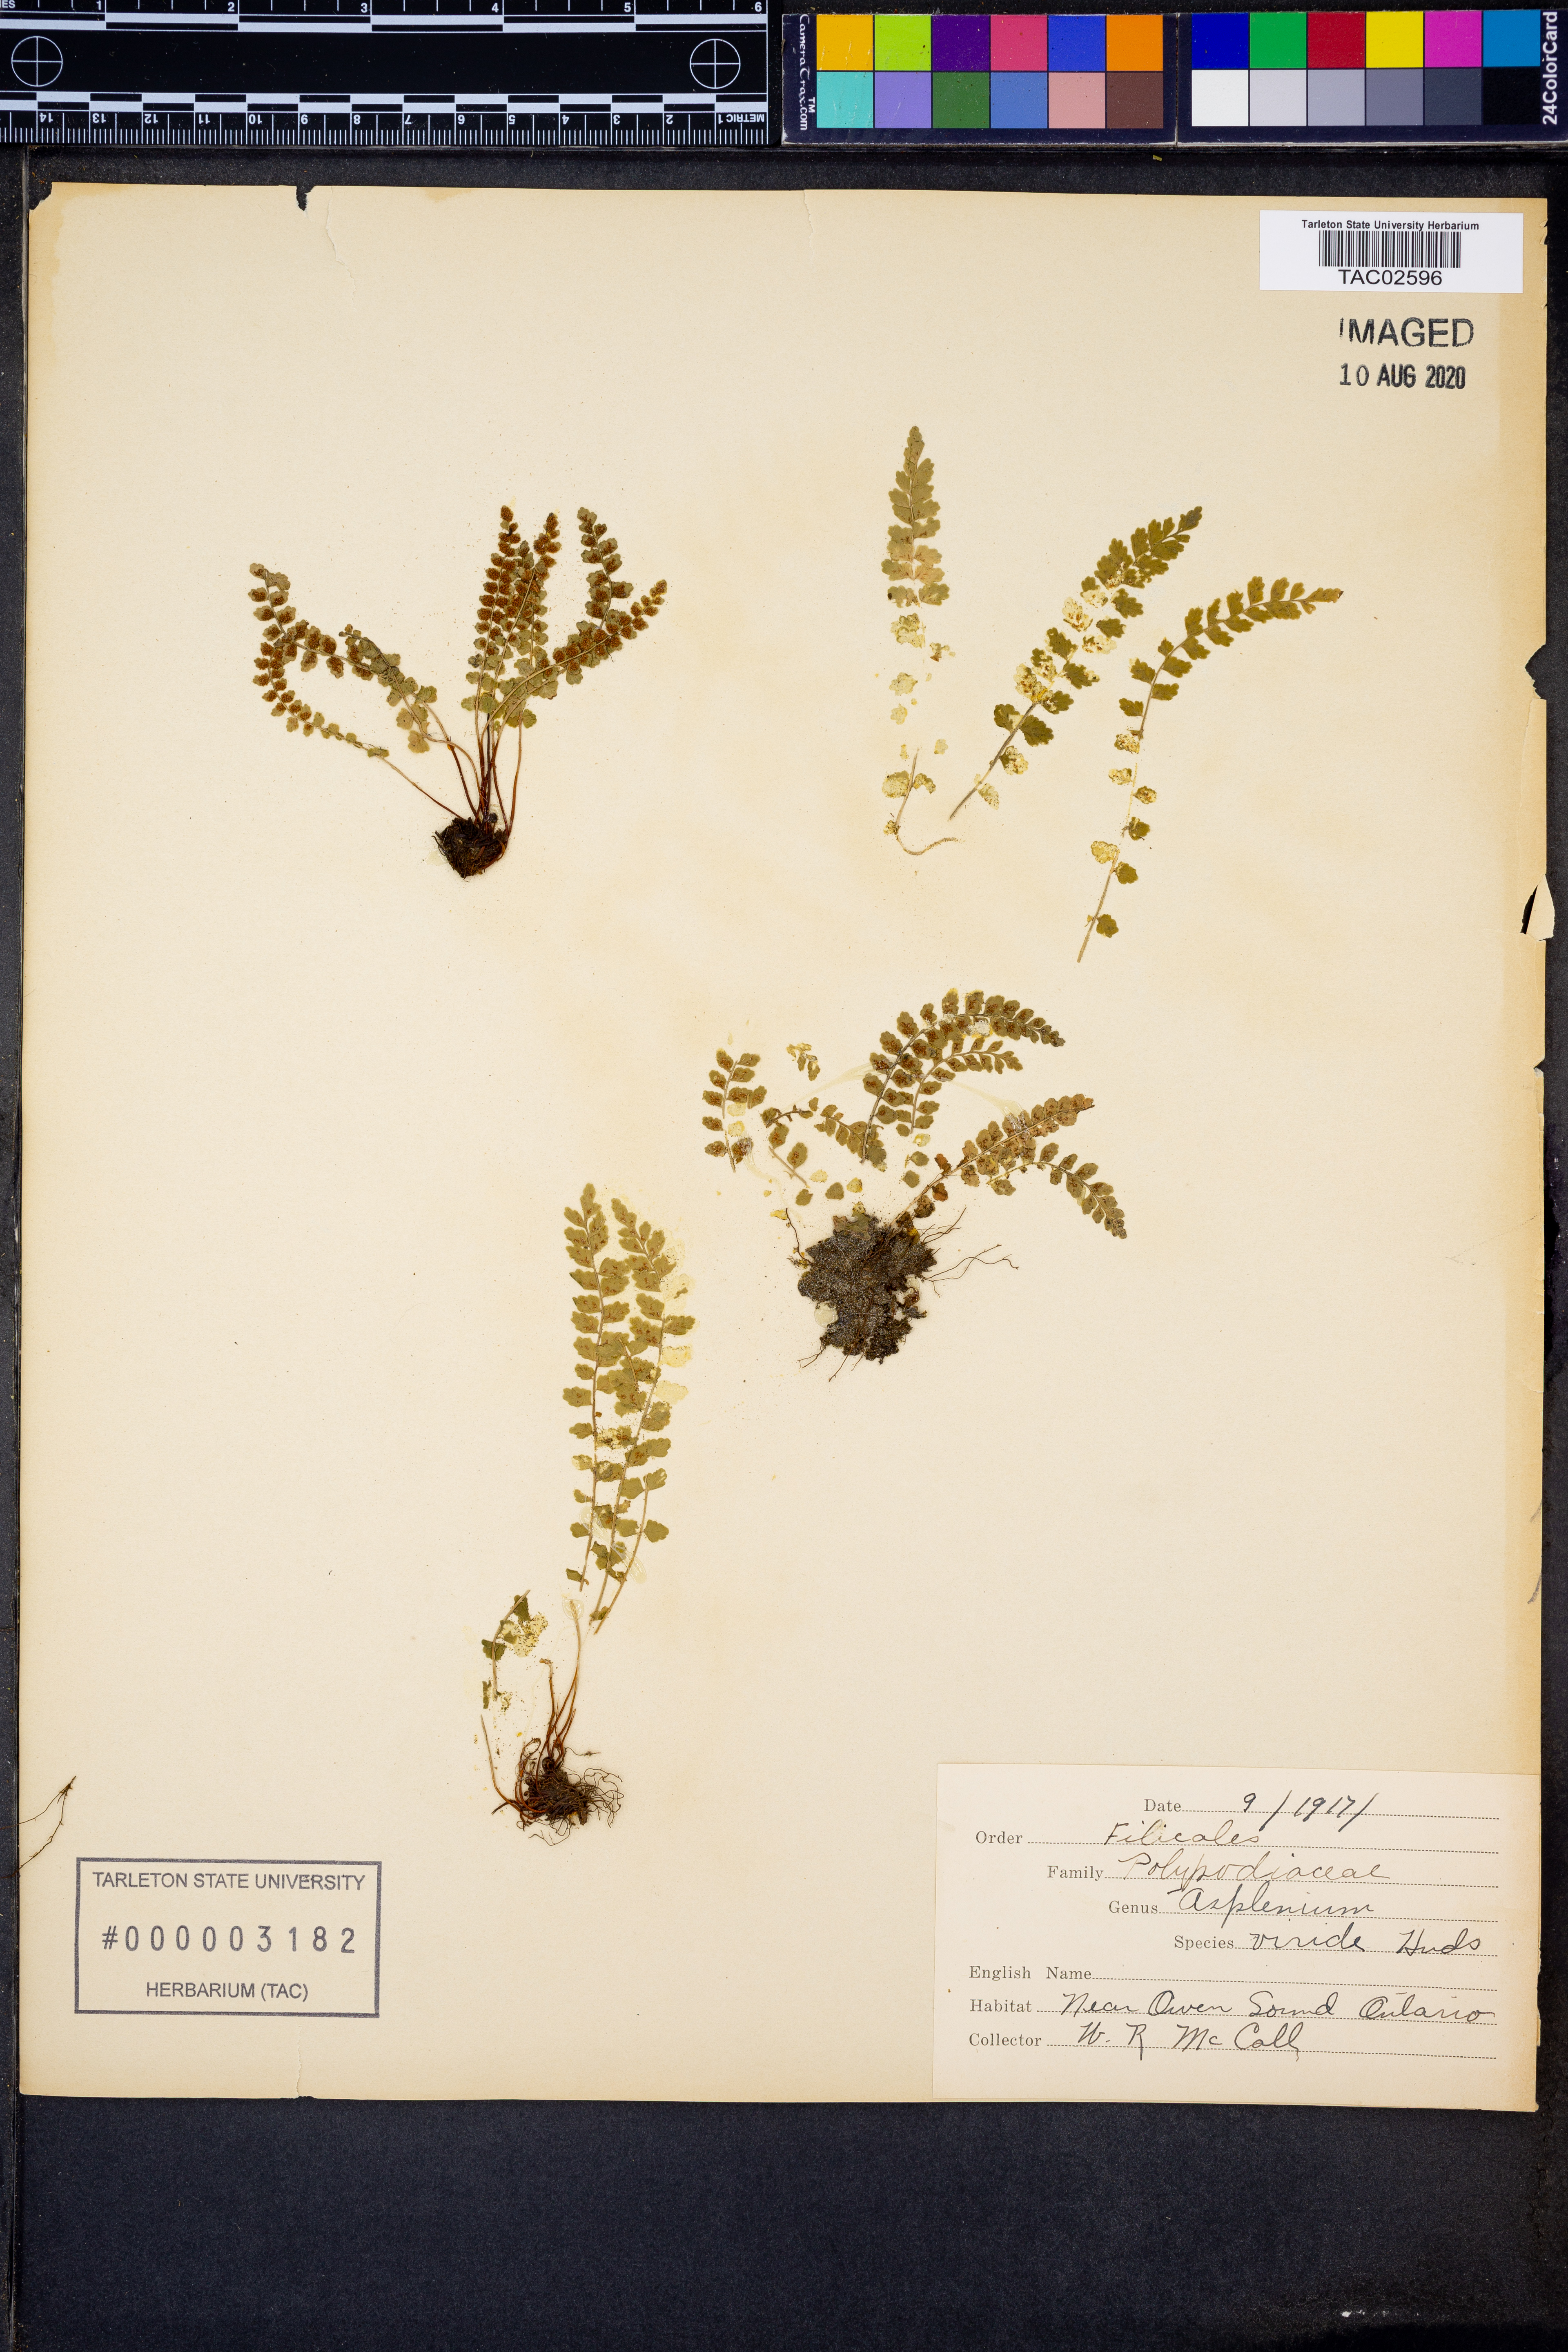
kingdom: Plantae
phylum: Tracheophyta
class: Polypodiopsida
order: Polypodiales
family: Aspleniaceae
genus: Asplenium
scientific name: Asplenium viride
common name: Green spleenwort
